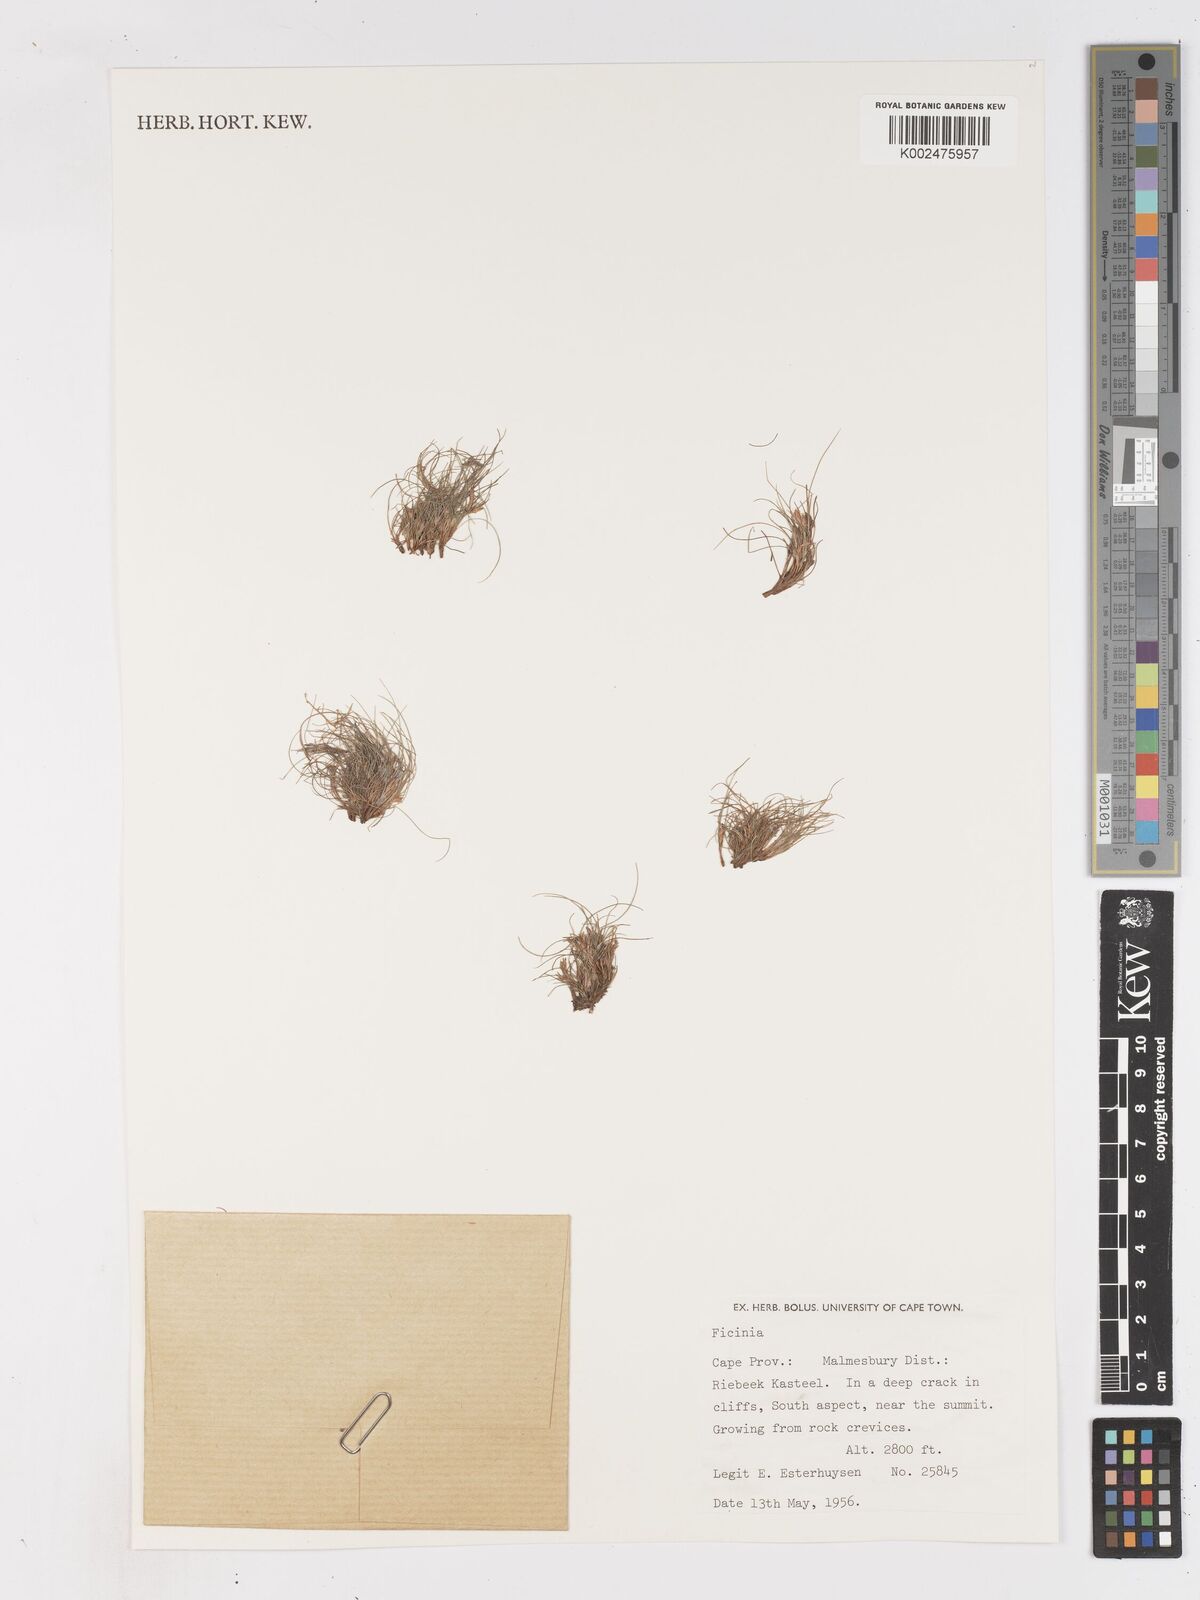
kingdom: Plantae
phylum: Tracheophyta
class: Liliopsida
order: Poales
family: Cyperaceae
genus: Ficinia
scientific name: Ficinia esterhuyseniae
